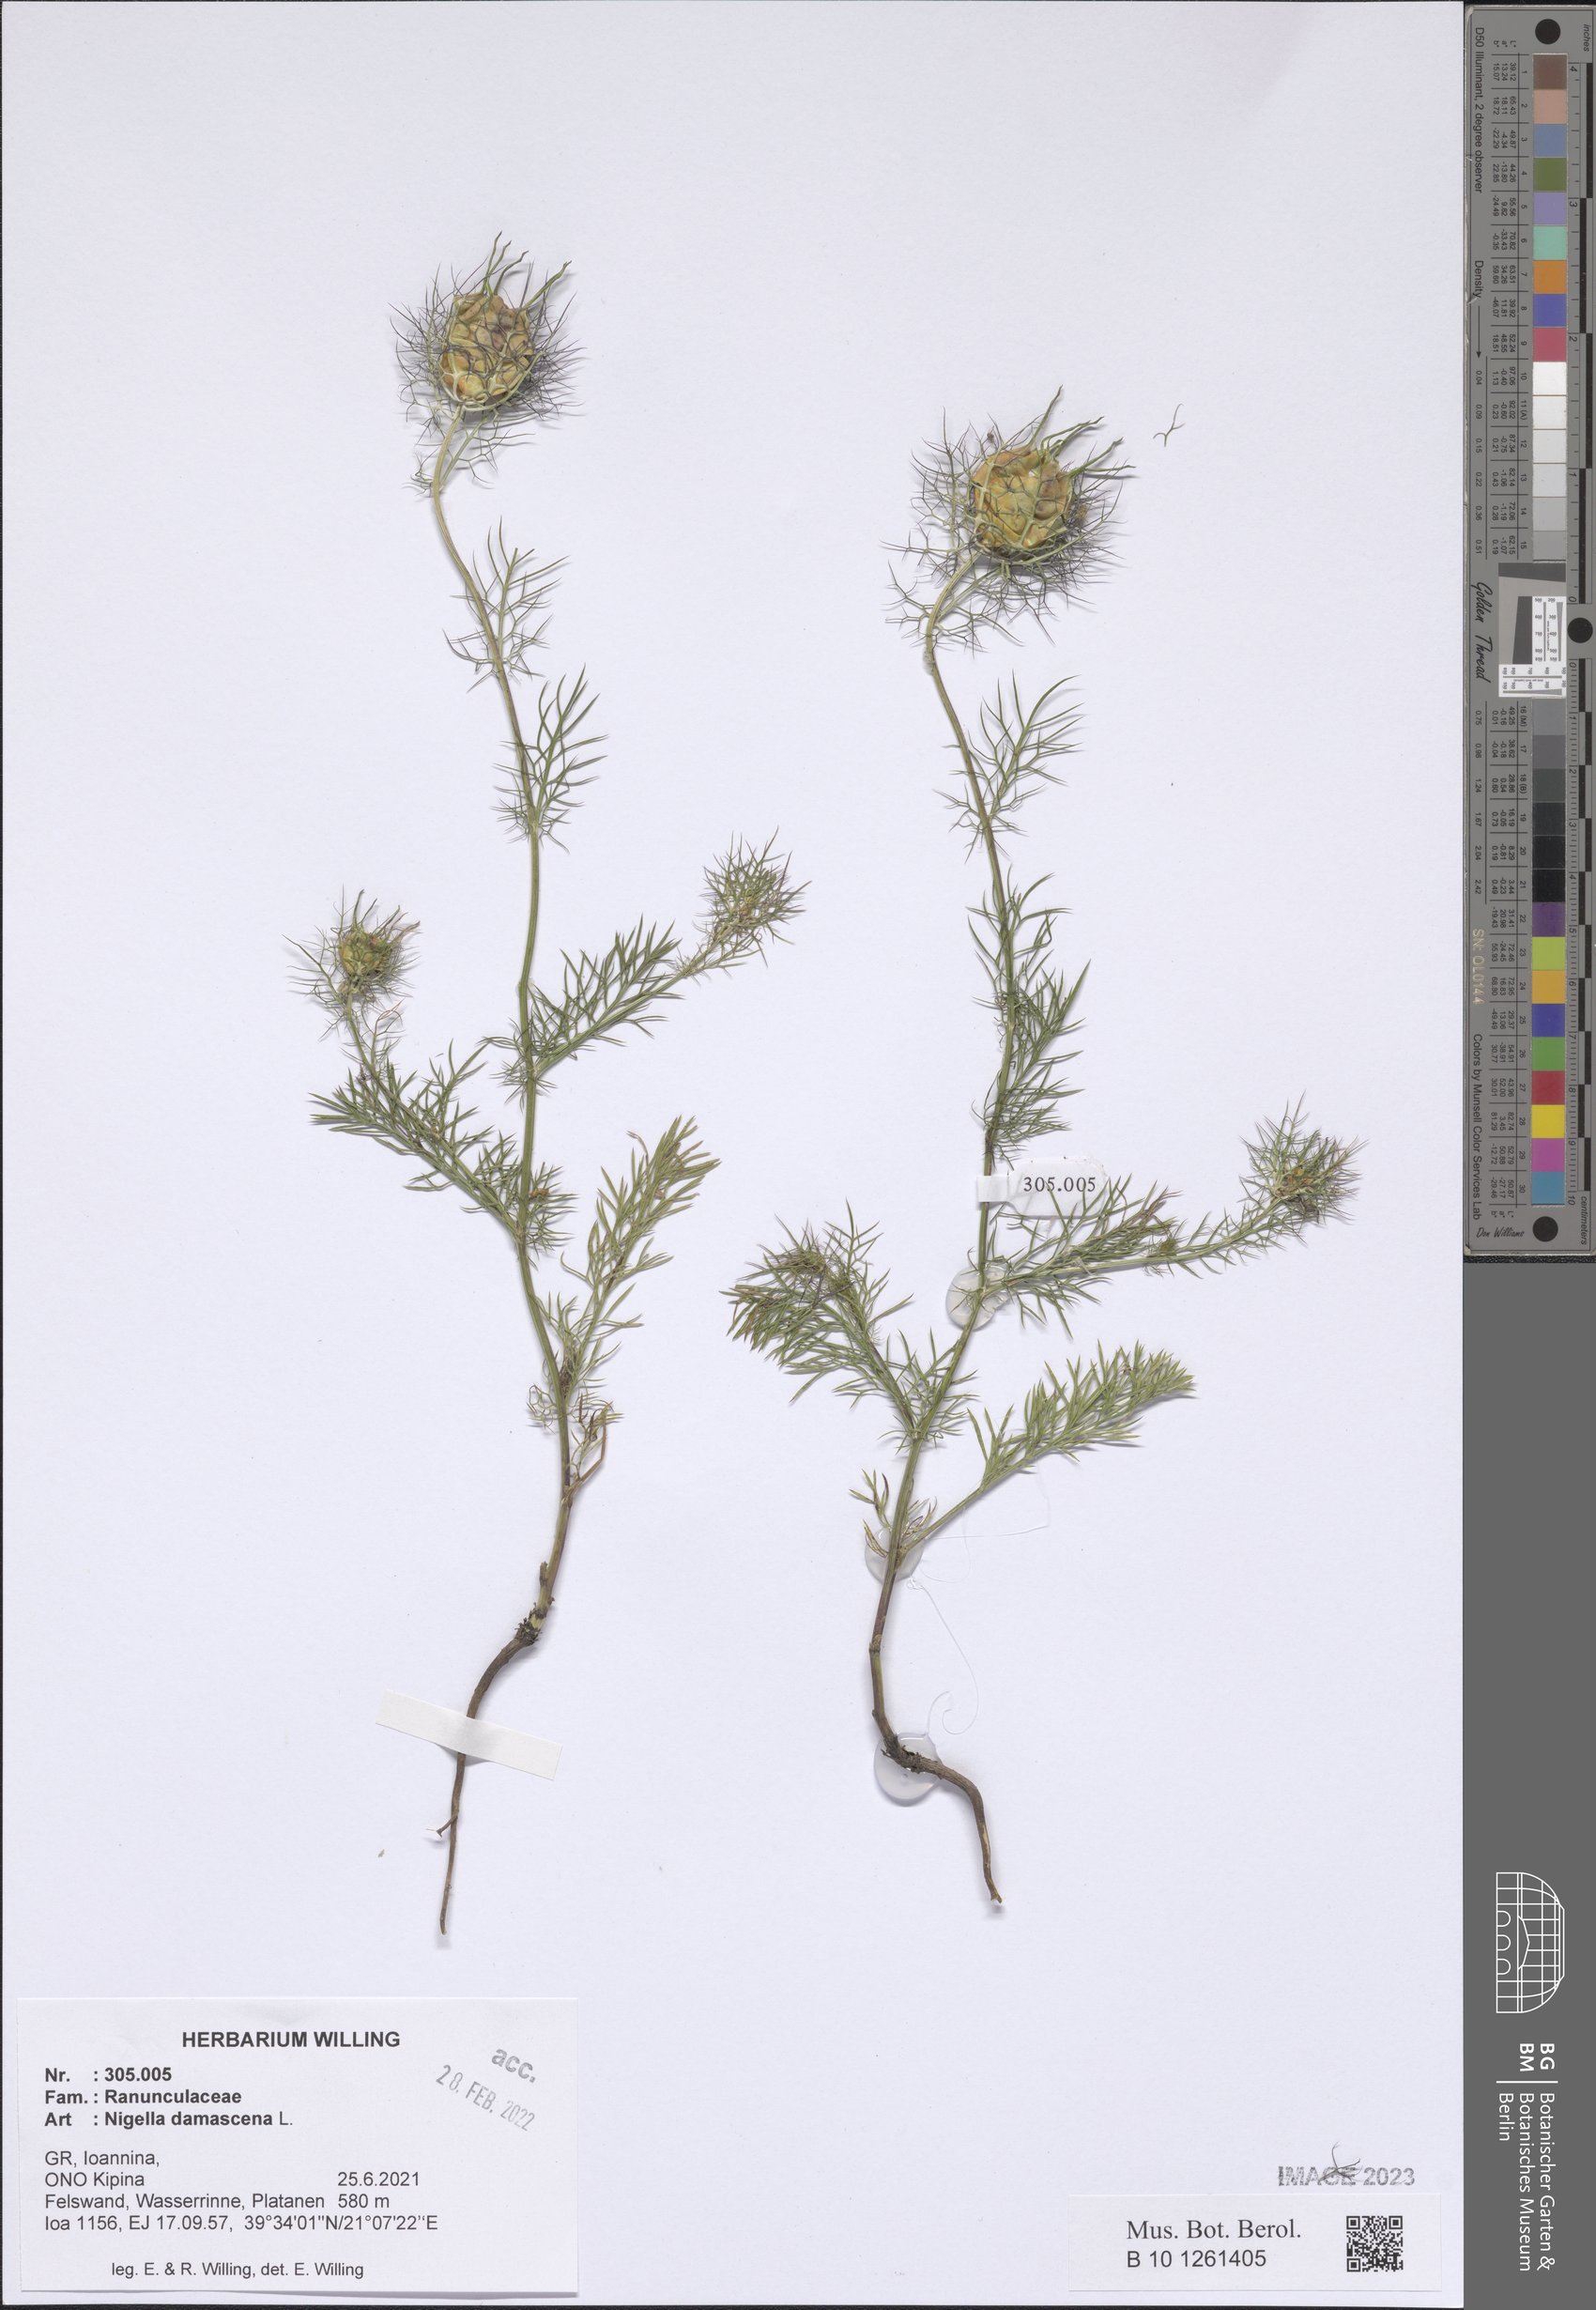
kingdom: Plantae
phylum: Tracheophyta
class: Magnoliopsida
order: Ranunculales
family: Ranunculaceae
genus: Nigella
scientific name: Nigella damascena
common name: Love-in-a-mist
